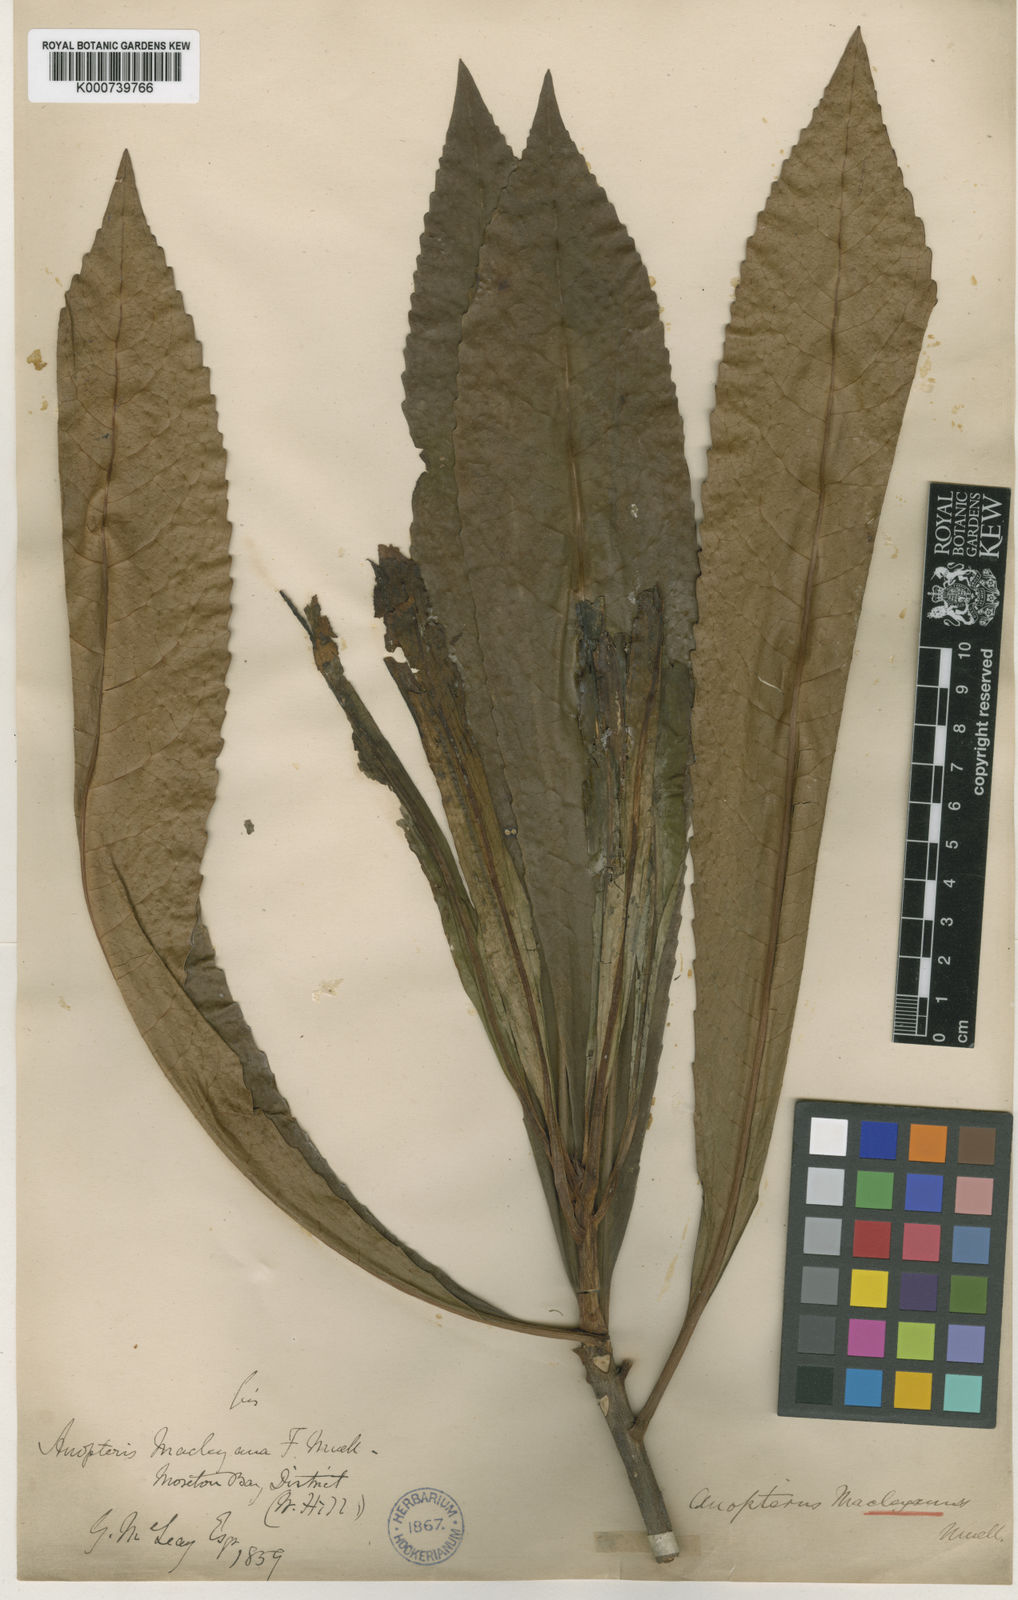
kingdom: Plantae
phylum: Tracheophyta
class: Magnoliopsida
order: Escalloniales
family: Escalloniaceae
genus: Anopterus
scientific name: Anopterus macleayanus
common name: Tasmanian-laurel
